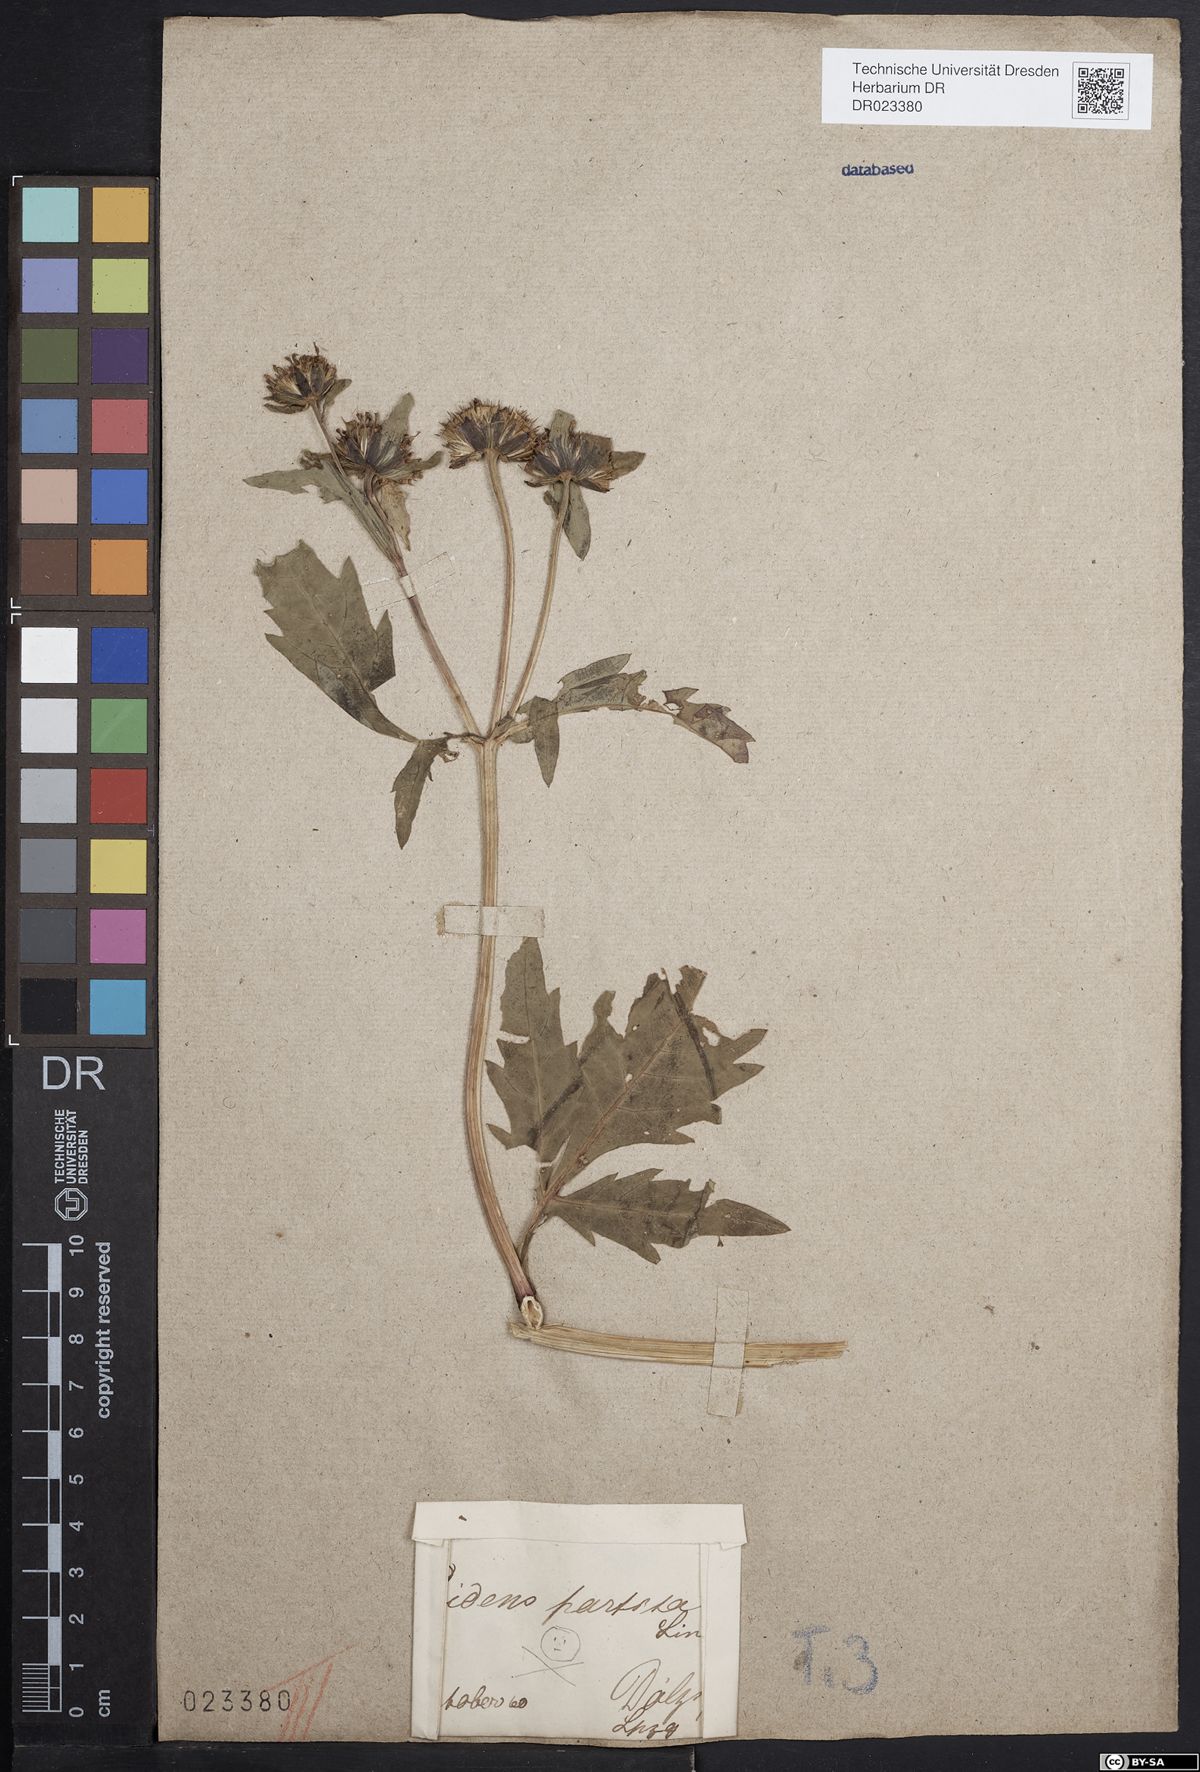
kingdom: Plantae
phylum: Tracheophyta
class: Magnoliopsida
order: Asterales
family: Asteraceae
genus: Bidens
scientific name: Bidens tripartita
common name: Trifid bur-marigold
